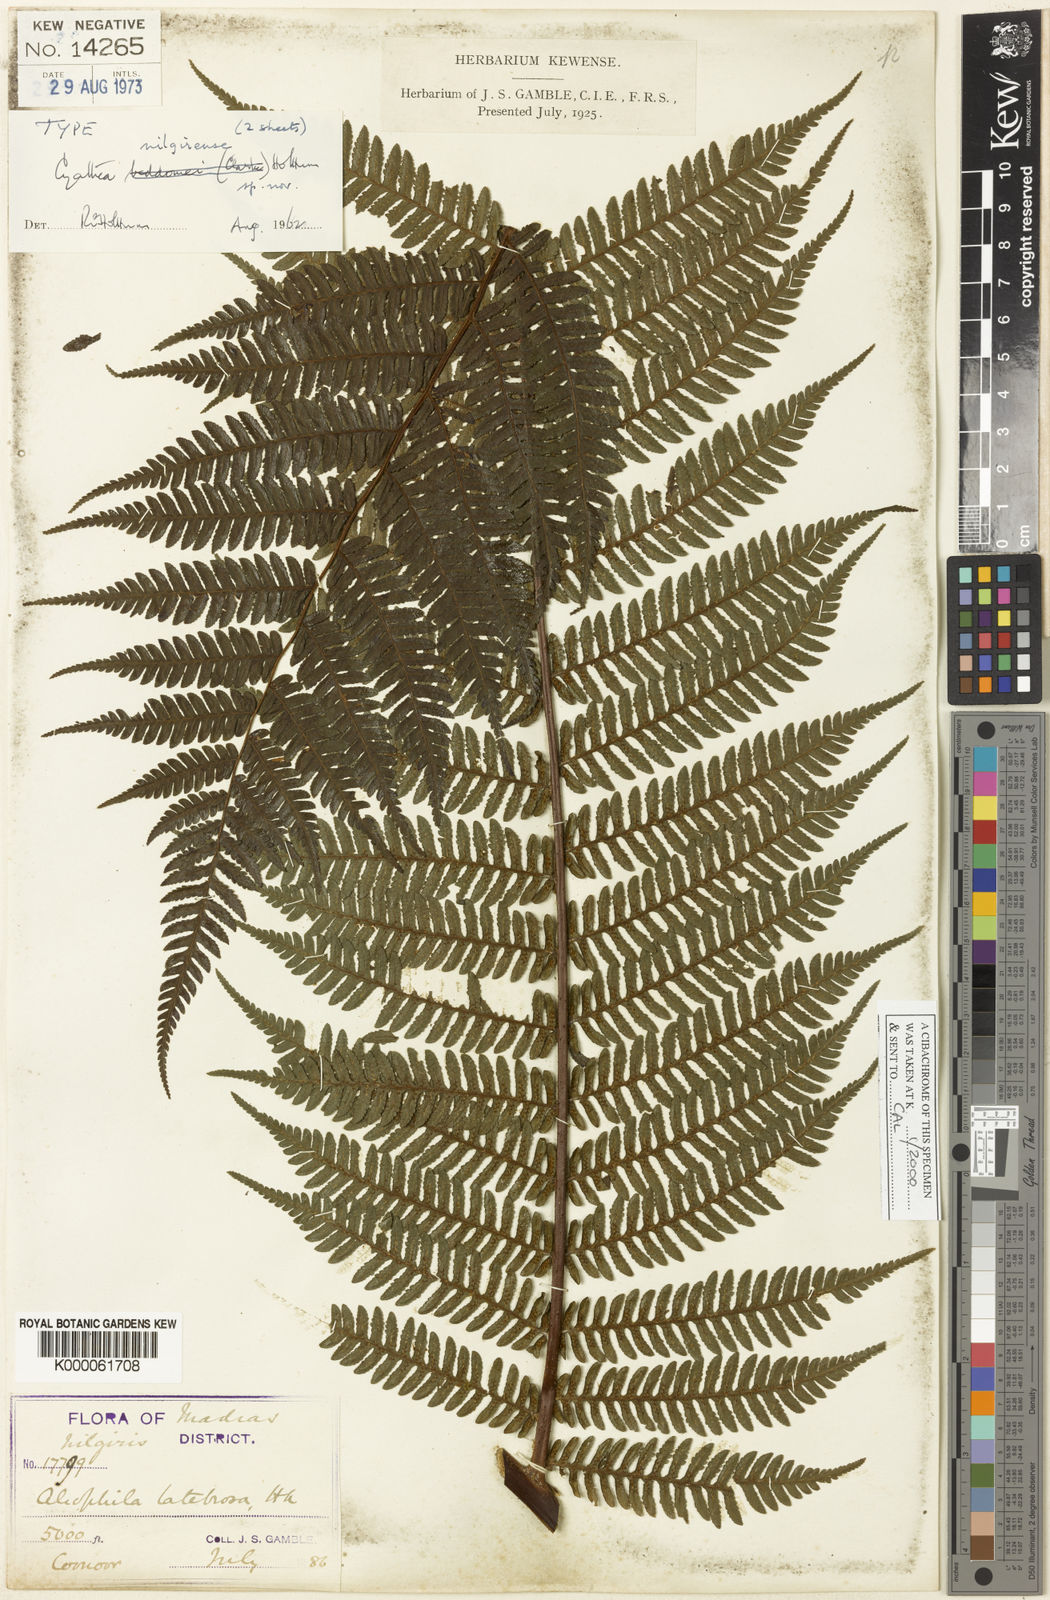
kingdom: Plantae
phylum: Tracheophyta
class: Polypodiopsida
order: Cyatheales
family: Cyatheaceae
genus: Alsophila
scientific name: Alsophila nilgirensis
